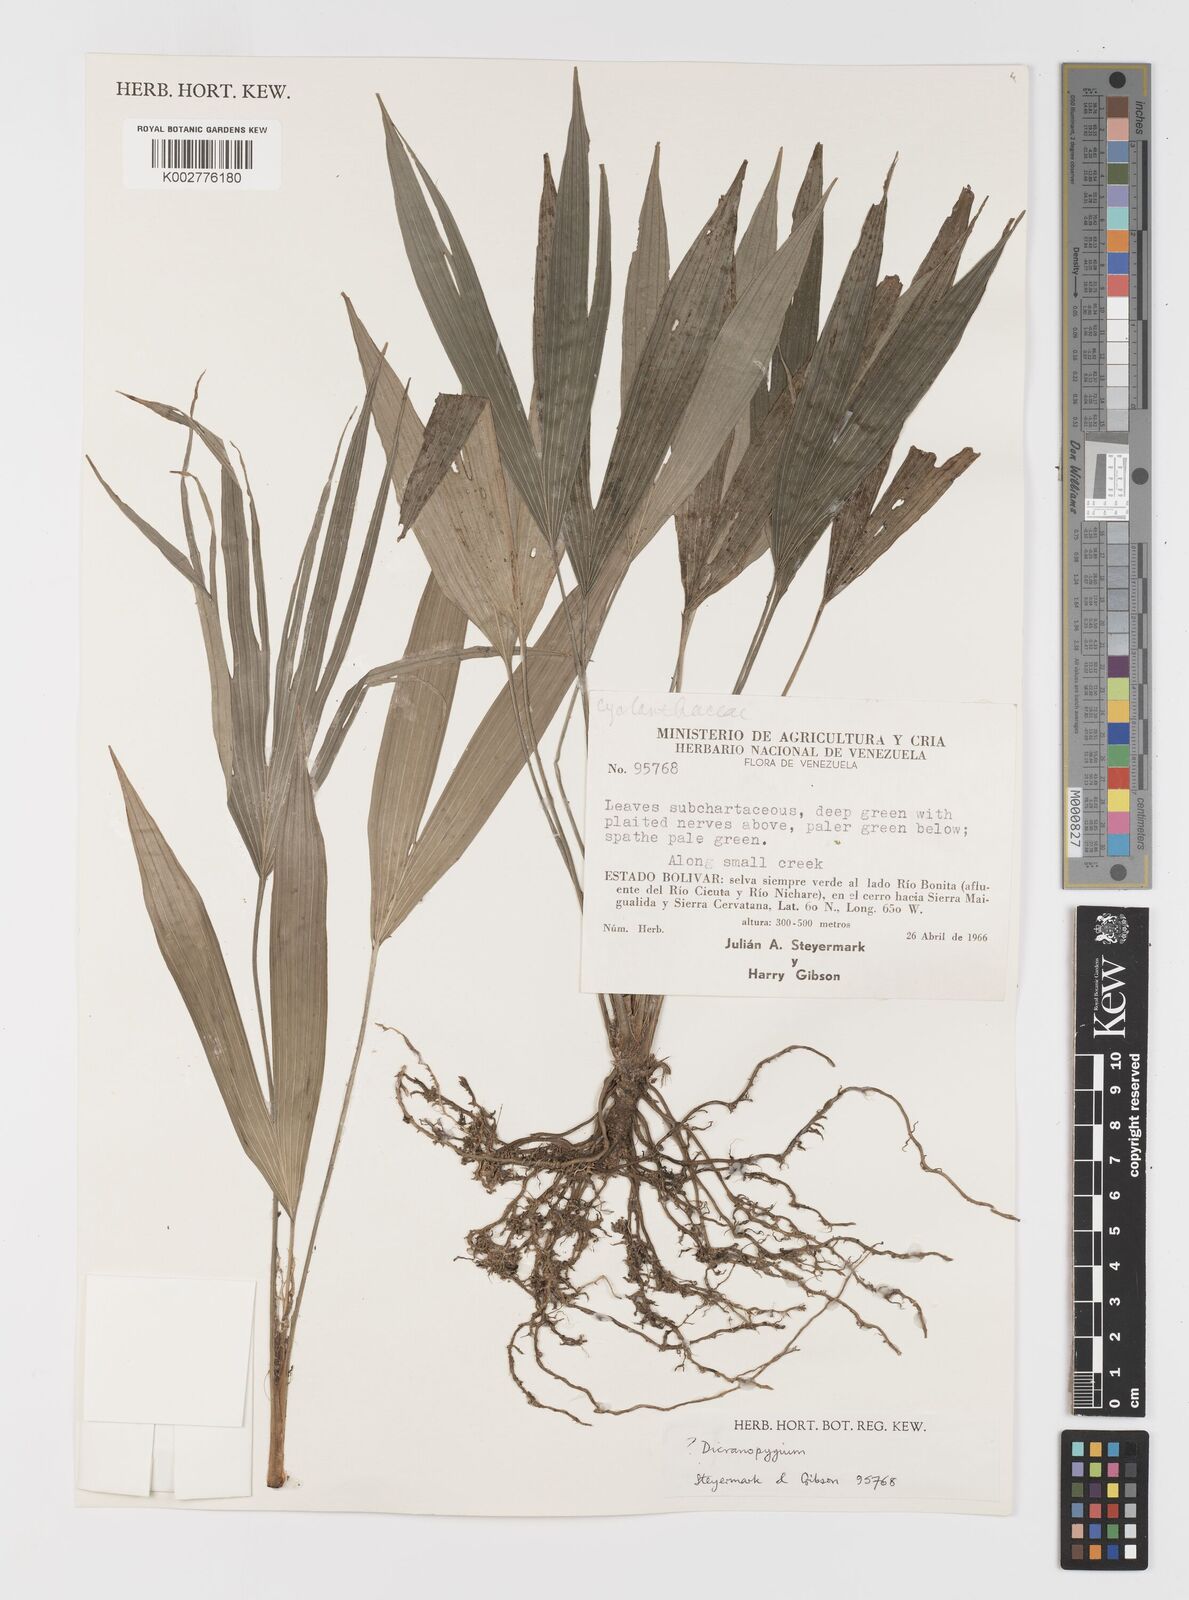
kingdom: Plantae
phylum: Tracheophyta
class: Liliopsida
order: Pandanales
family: Cyclanthaceae
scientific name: Cyclanthaceae
